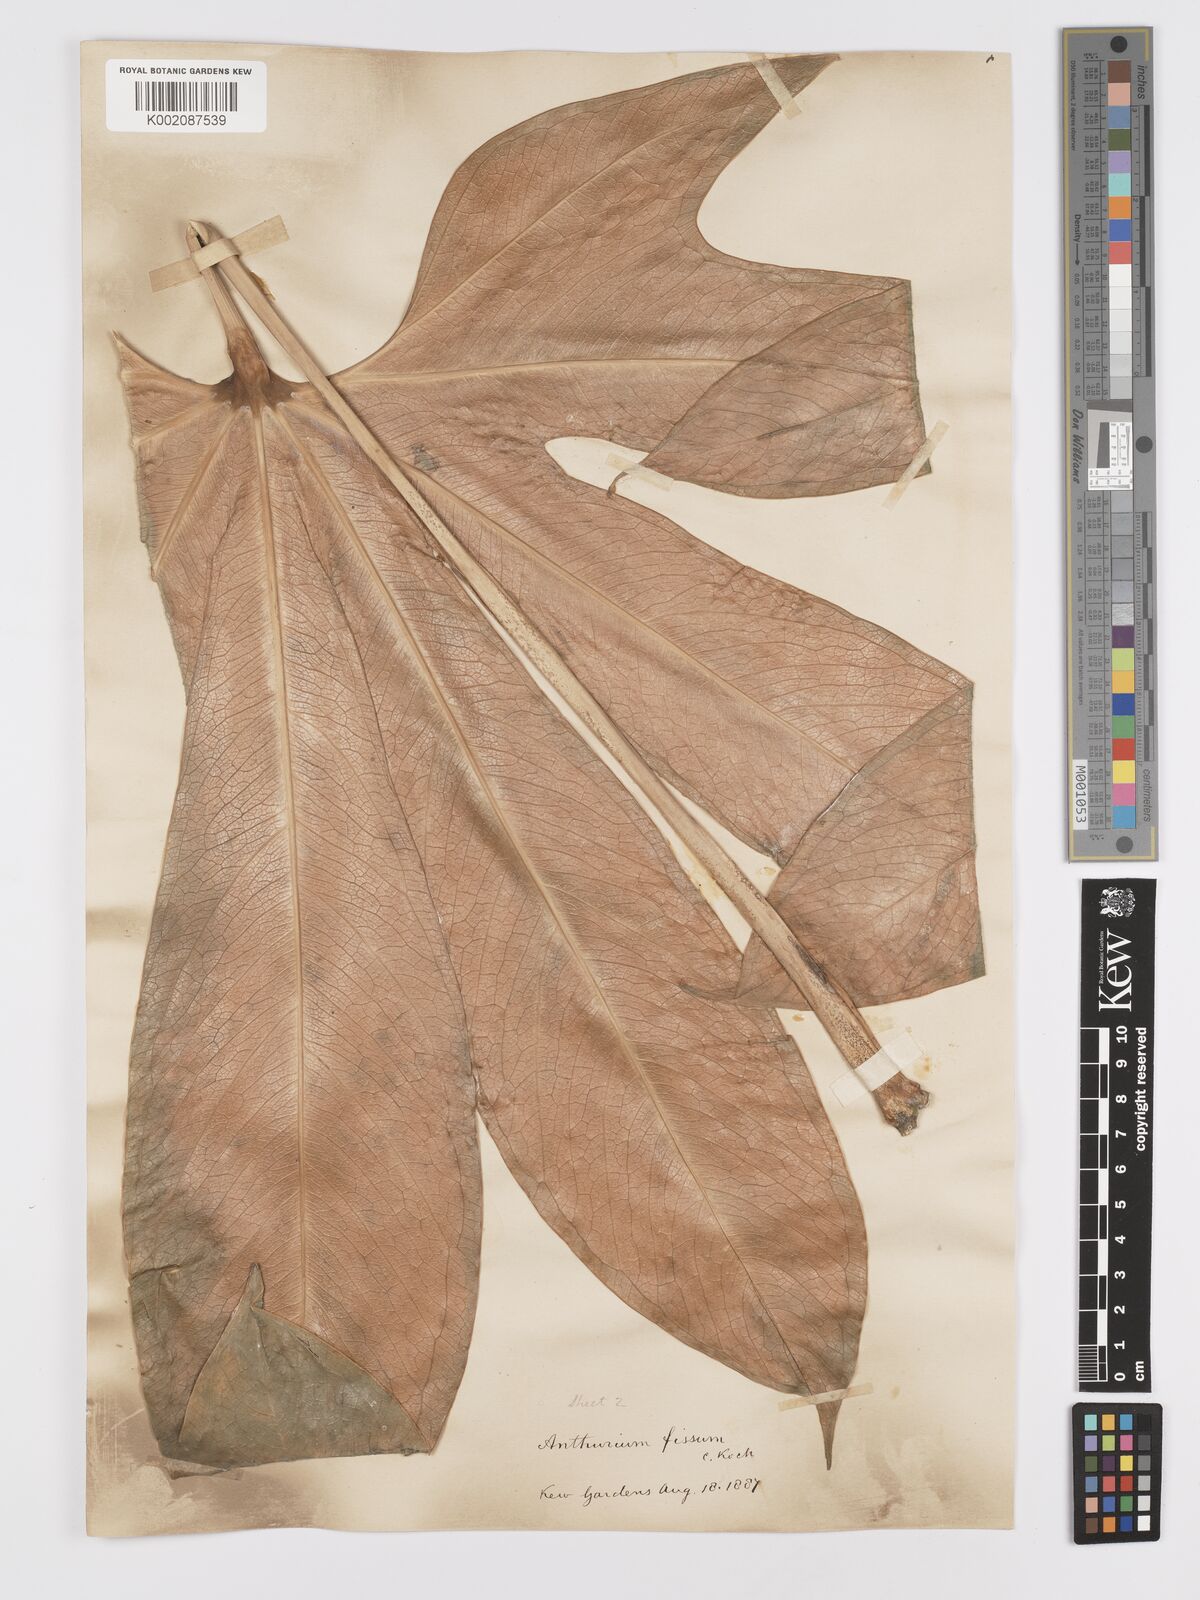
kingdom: Plantae
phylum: Tracheophyta
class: Liliopsida
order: Alismatales
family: Araceae
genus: Anthurium
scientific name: Anthurium palmatum
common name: Mibi
